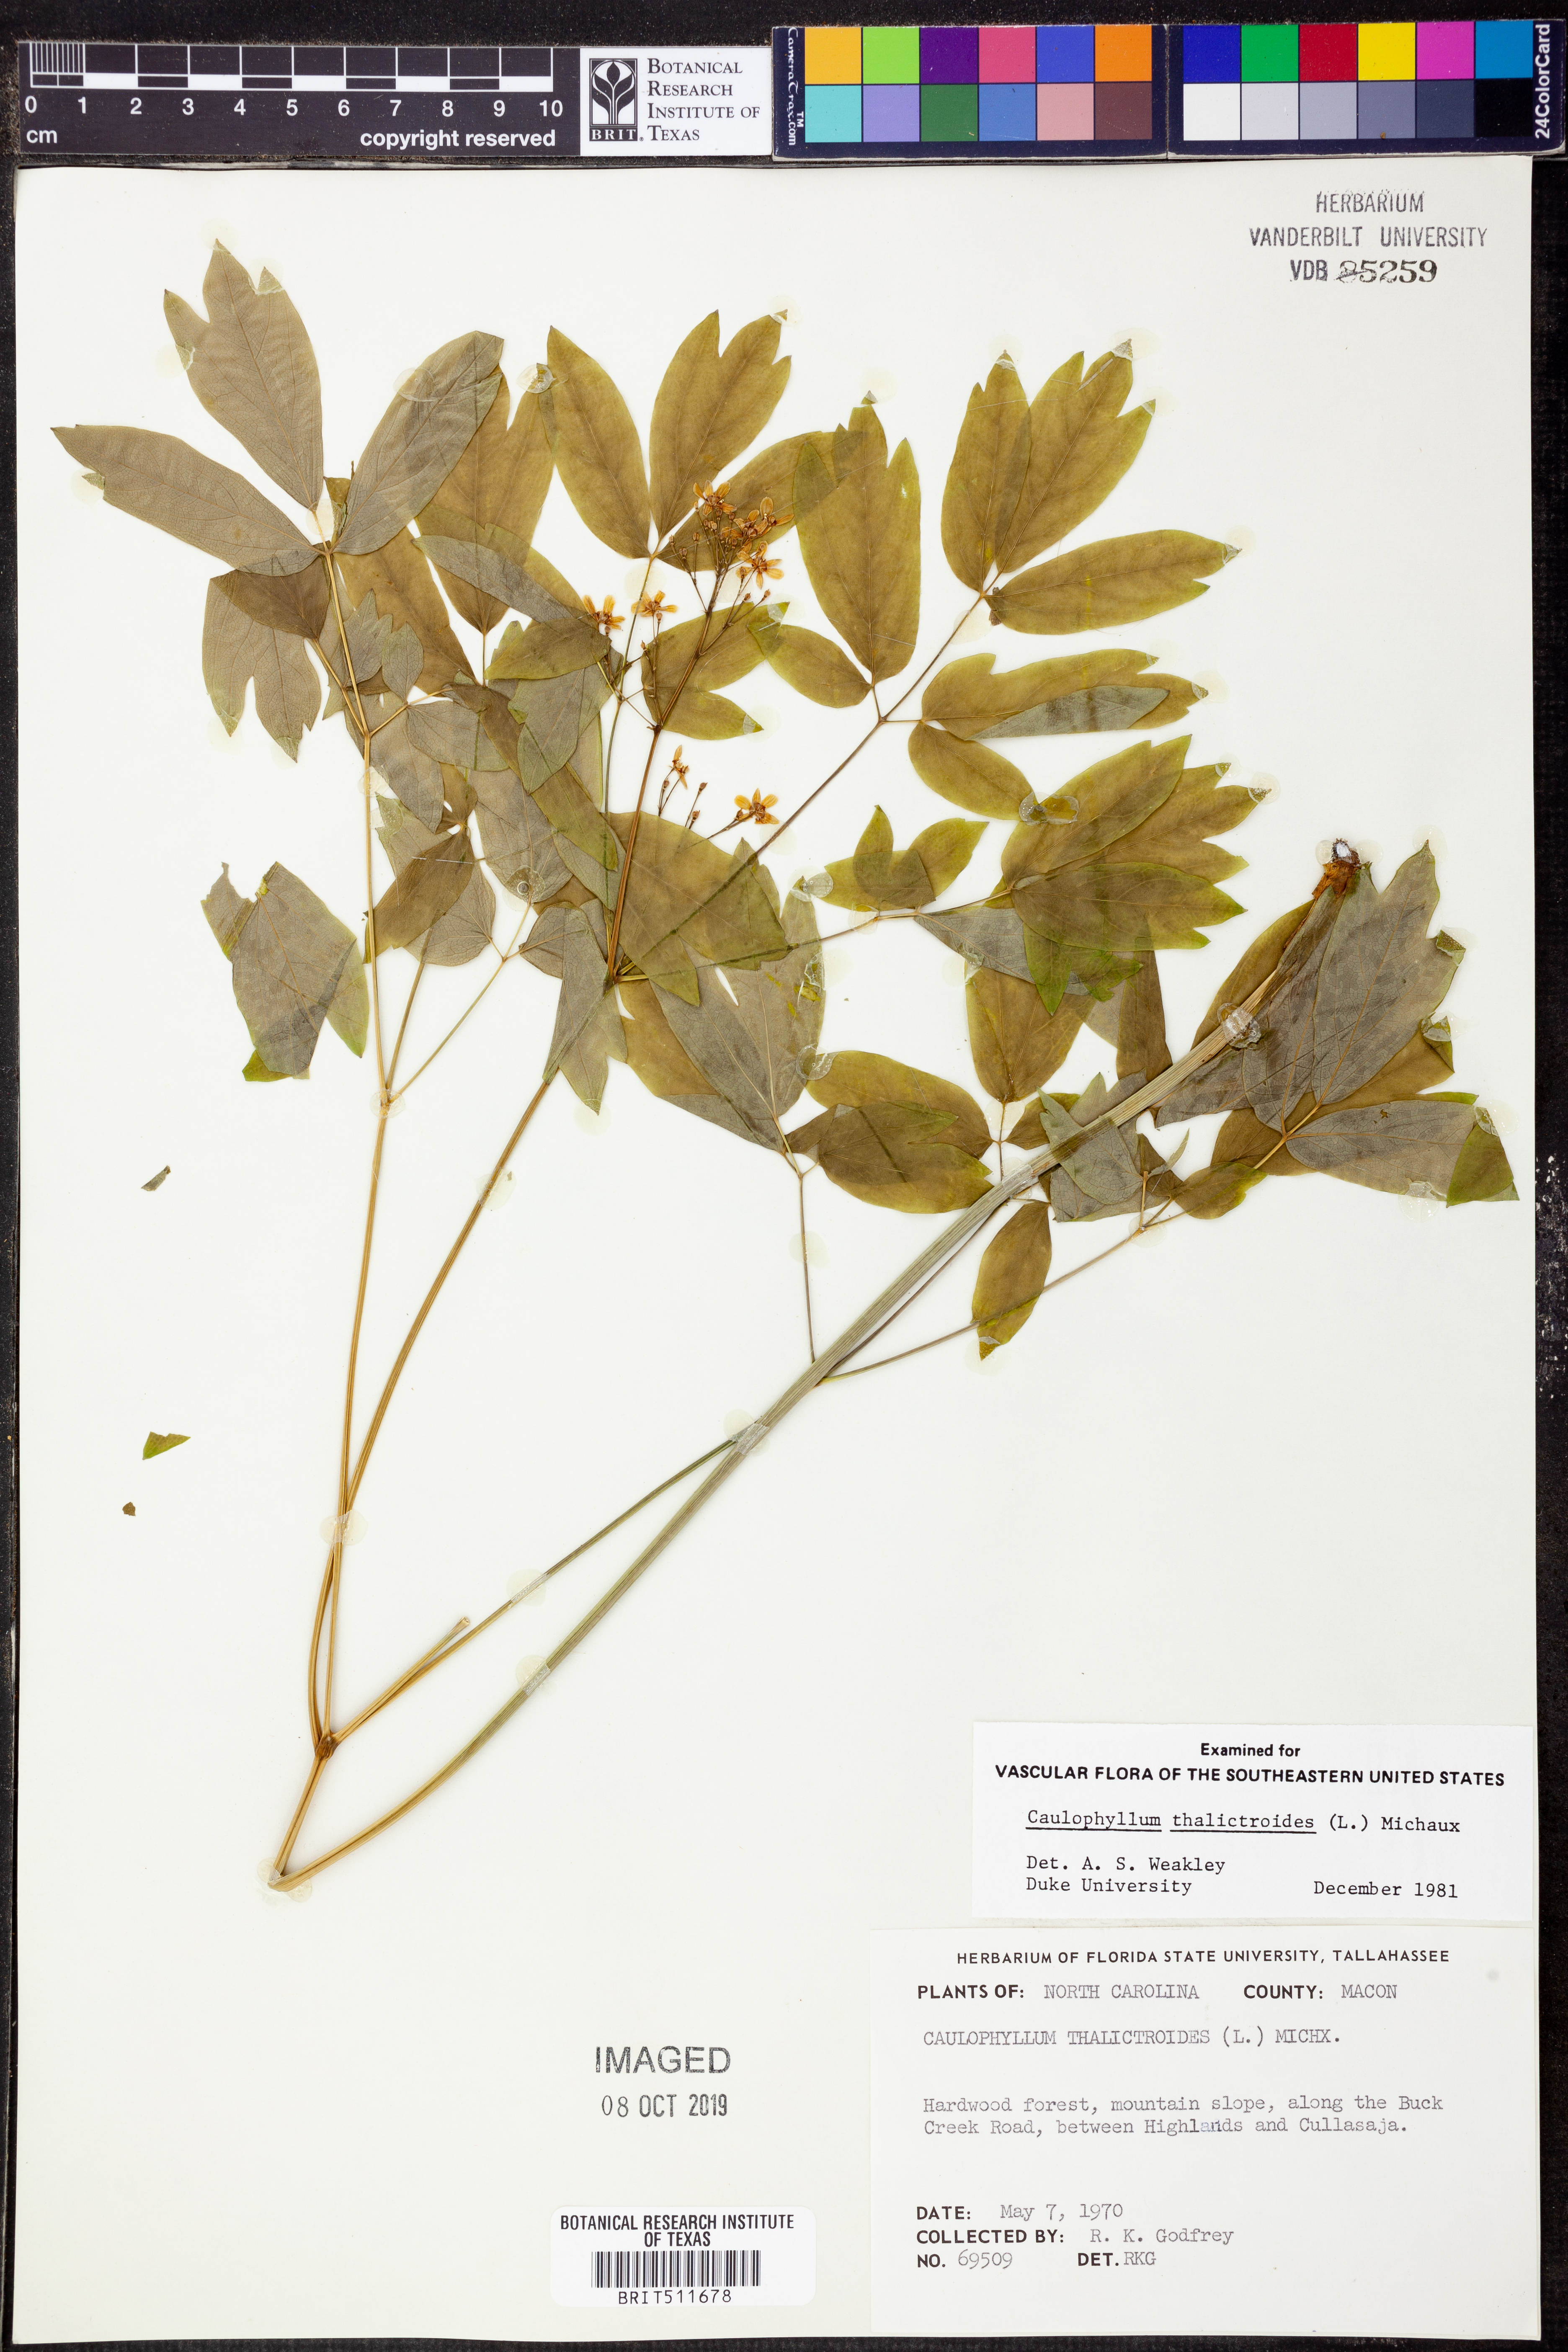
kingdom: Plantae
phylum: Tracheophyta
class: Magnoliopsida
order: Ranunculales
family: Berberidaceae
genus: Caulophyllum
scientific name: Caulophyllum thalictroides
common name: Blue cohosh
